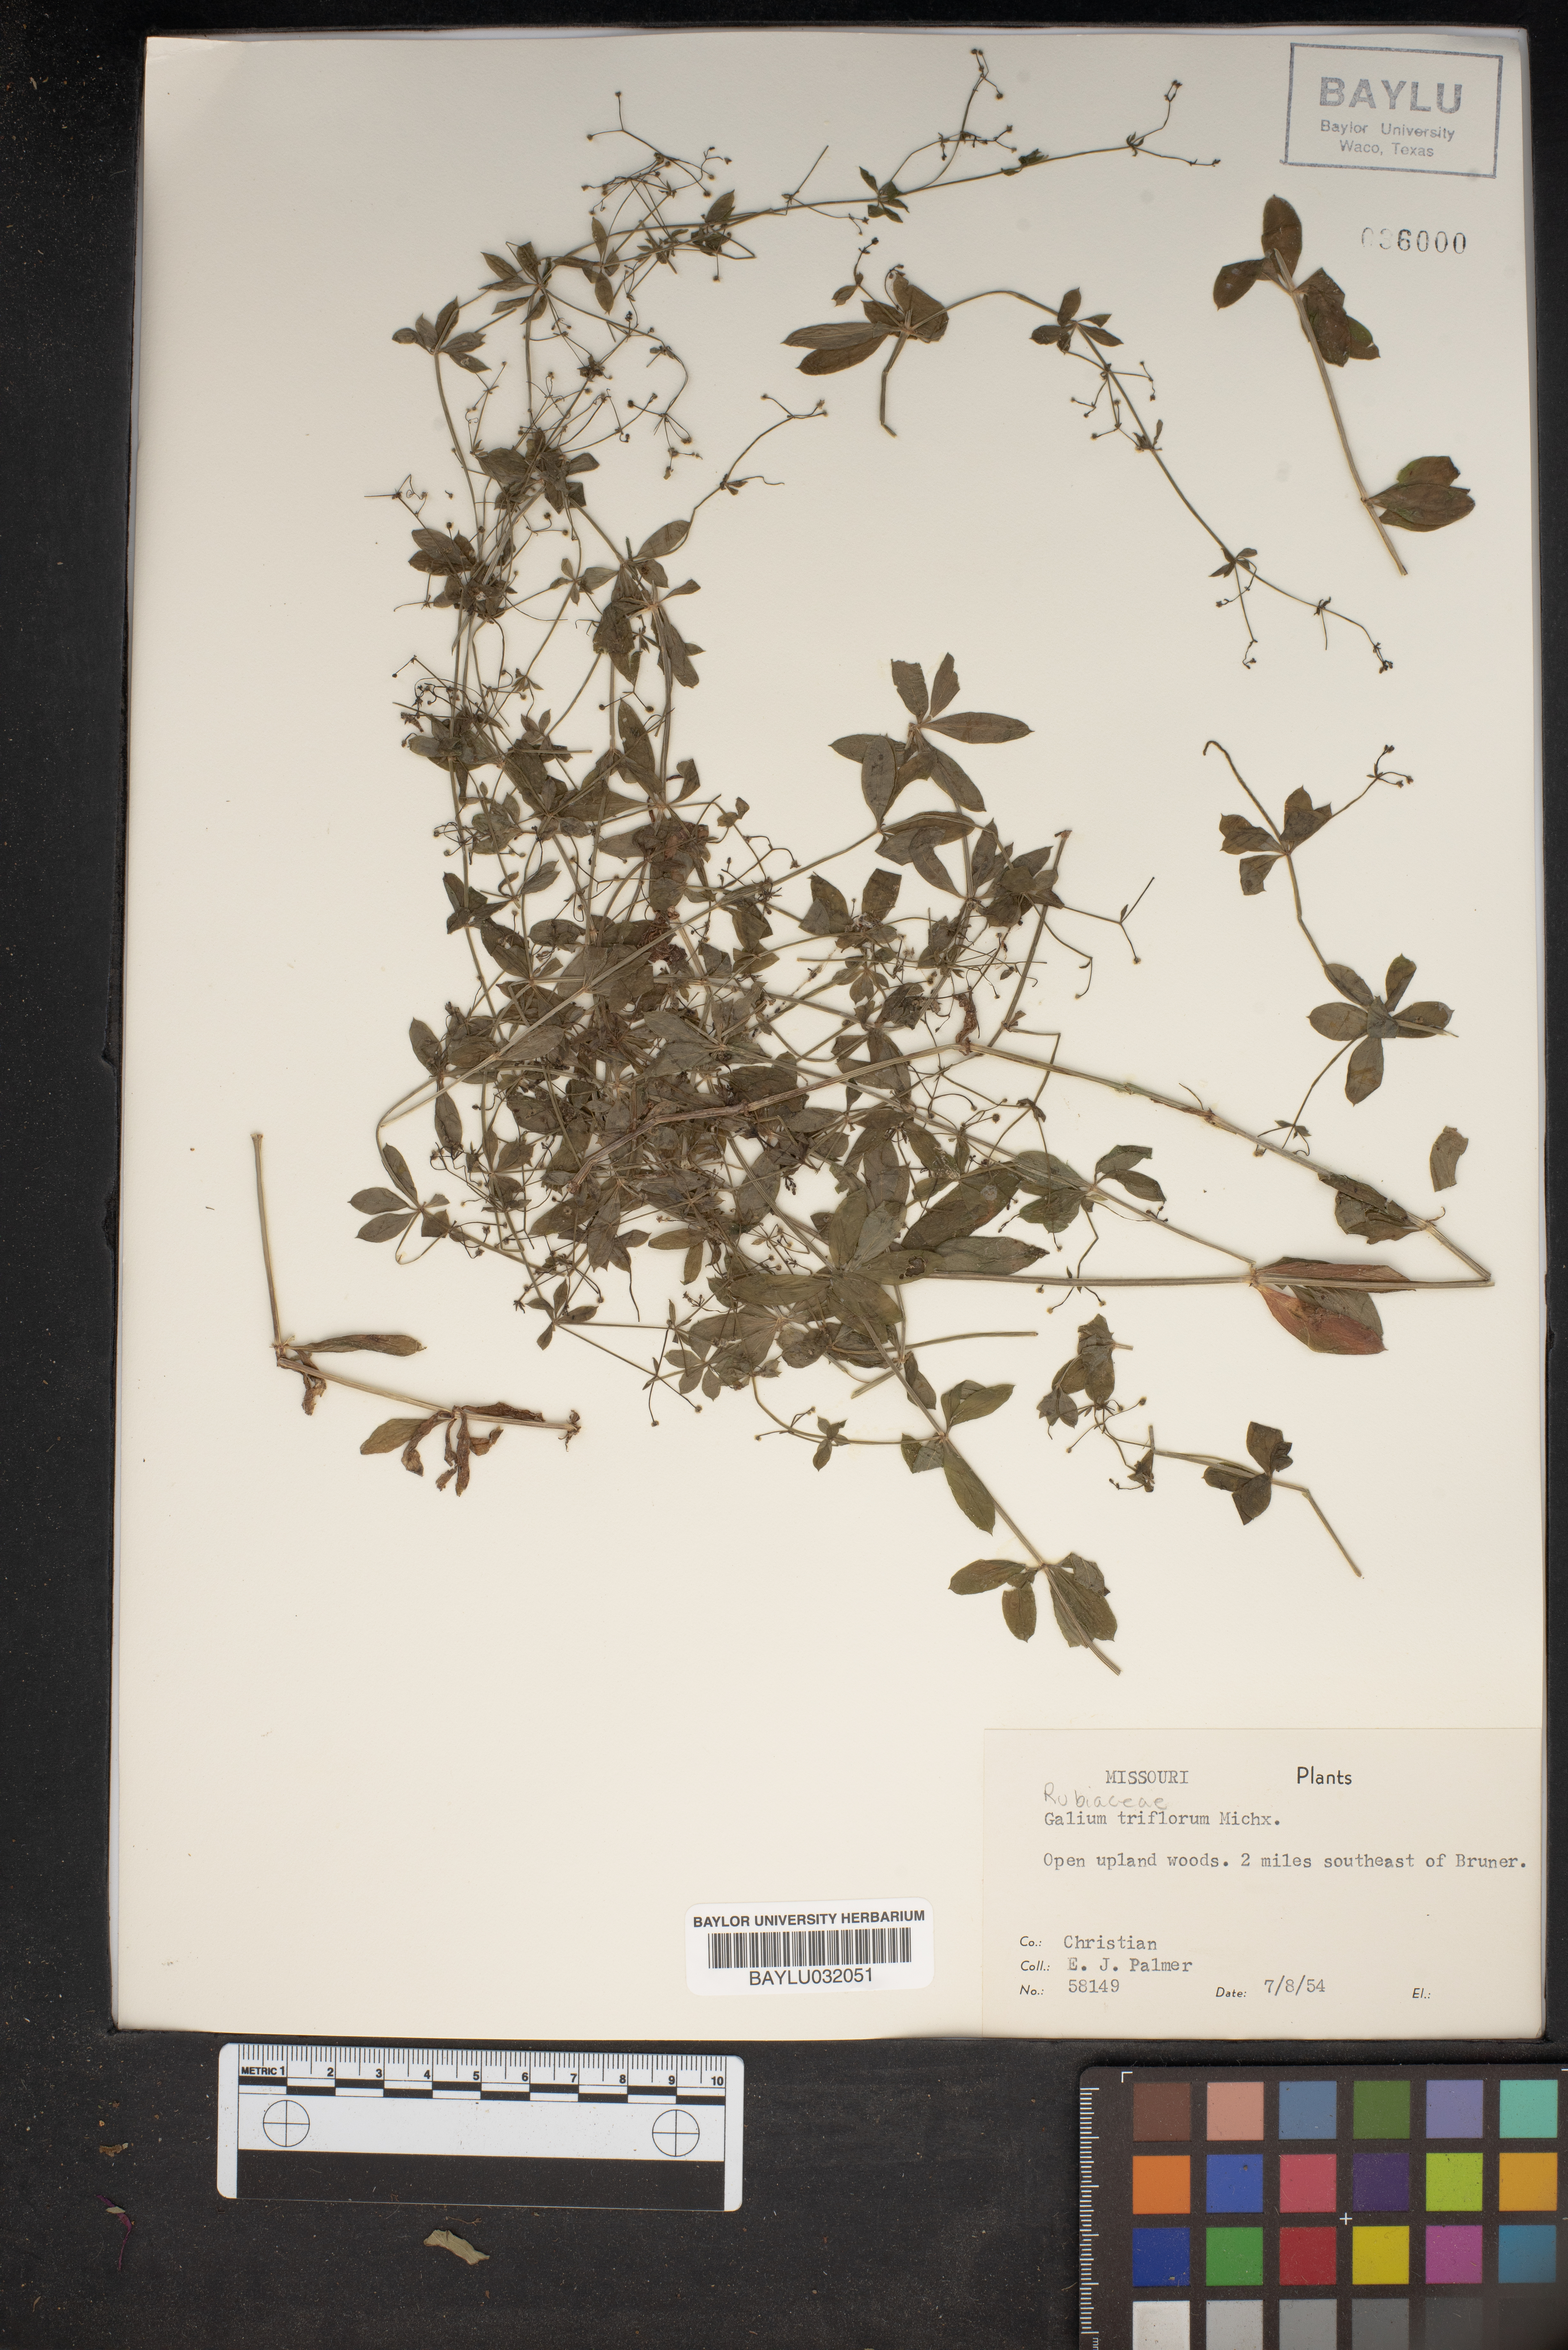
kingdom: Plantae
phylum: Tracheophyta
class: Magnoliopsida
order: Gentianales
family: Rubiaceae
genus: Galium
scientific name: Galium triflorum
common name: Fragrant bedstraw
